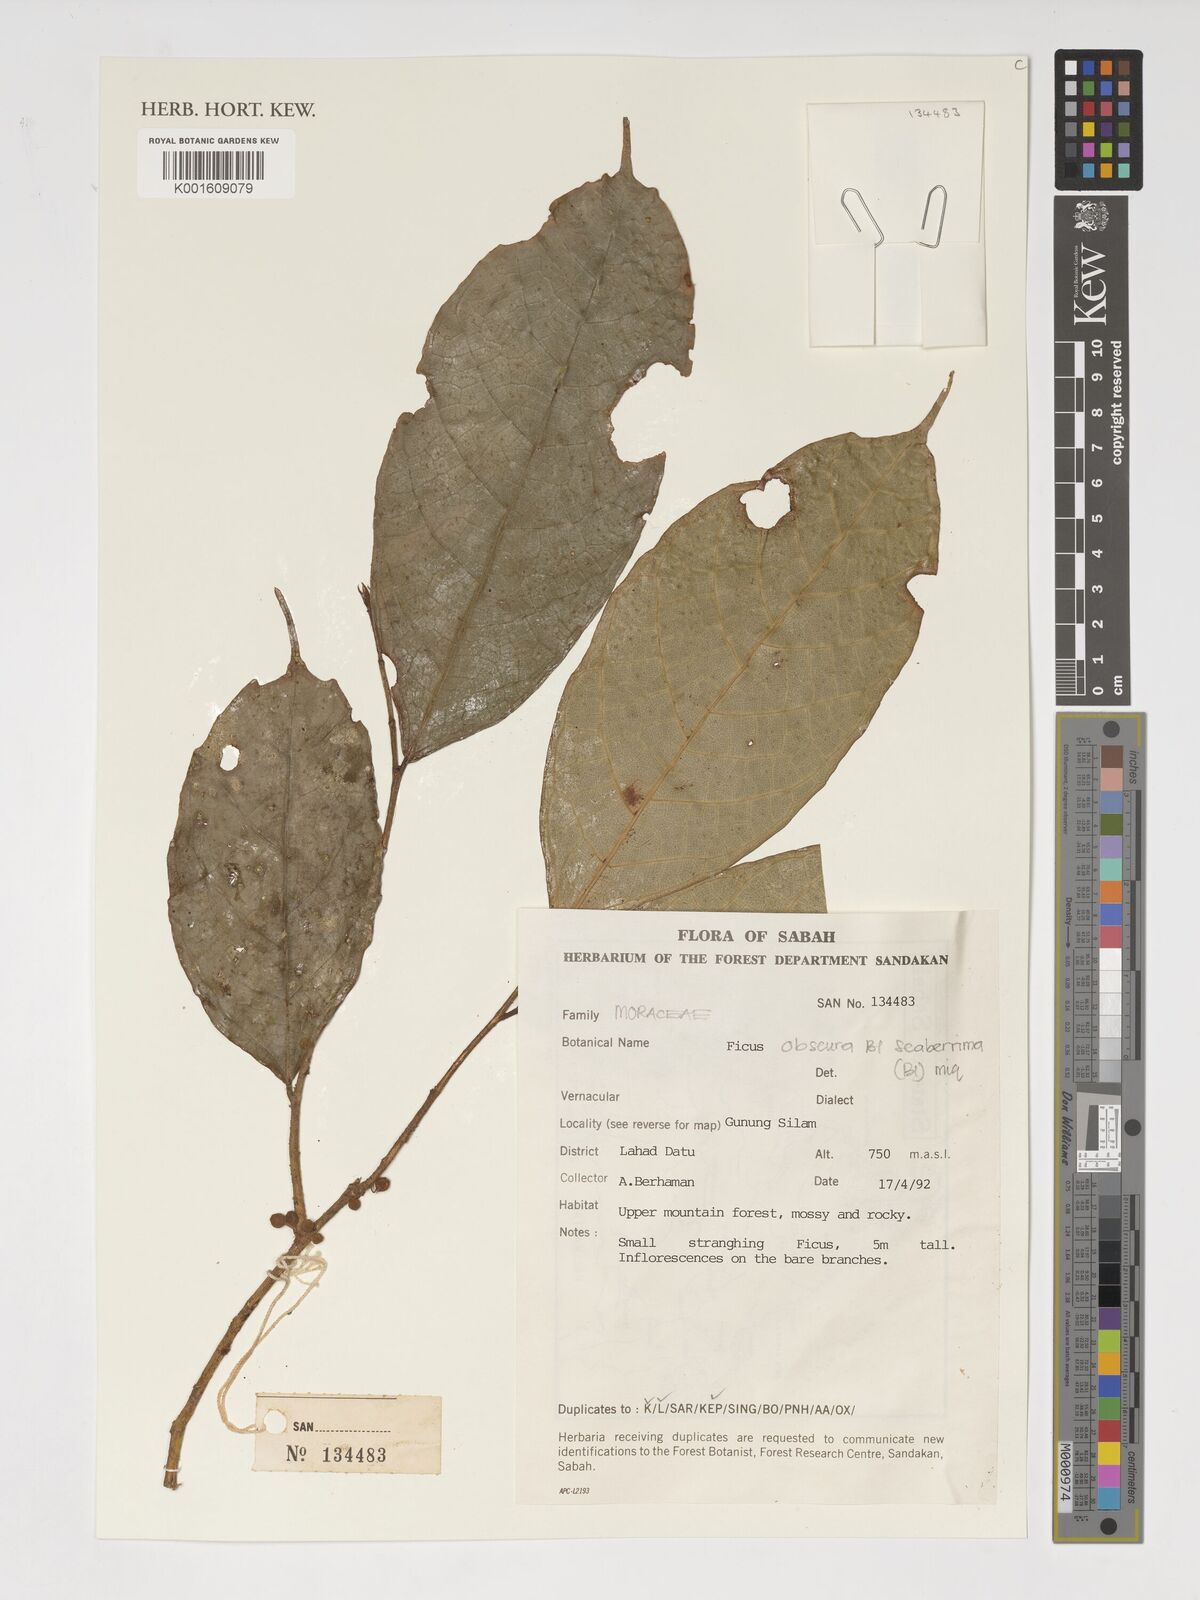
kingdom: Plantae
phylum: Tracheophyta
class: Magnoliopsida
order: Rosales
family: Moraceae
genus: Ficus
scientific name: Ficus
